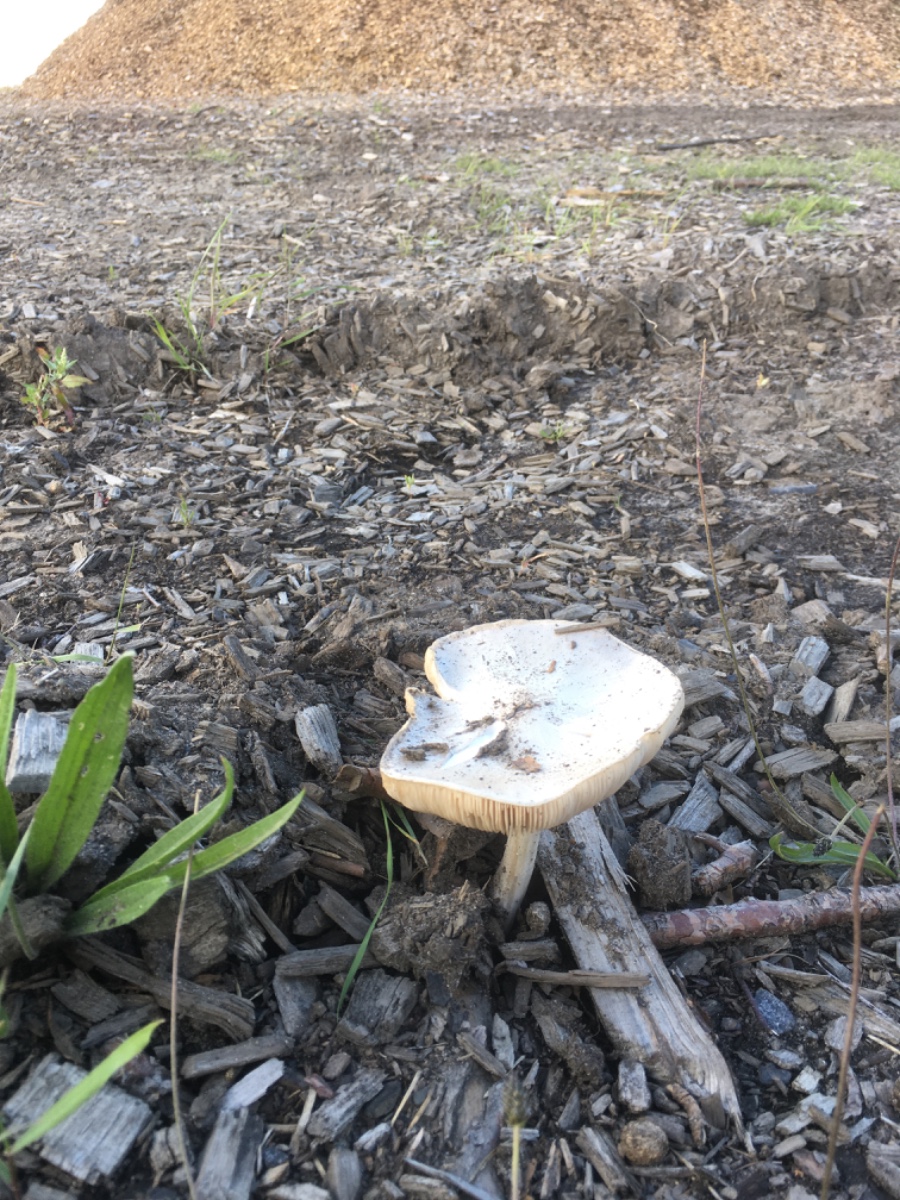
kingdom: Fungi
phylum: Basidiomycota
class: Agaricomycetes
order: Agaricales
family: Pluteaceae
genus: Pluteus
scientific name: Pluteus petasatus
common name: savsmulds-skærmhat
